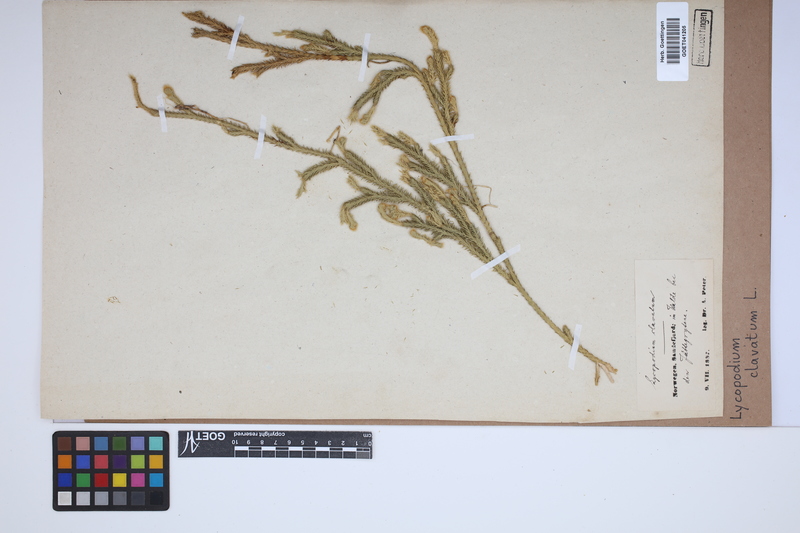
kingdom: Plantae
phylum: Tracheophyta
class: Lycopodiopsida
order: Lycopodiales
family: Lycopodiaceae
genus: Lycopodium
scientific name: Lycopodium clavatum
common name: Stag's-horn clubmoss
